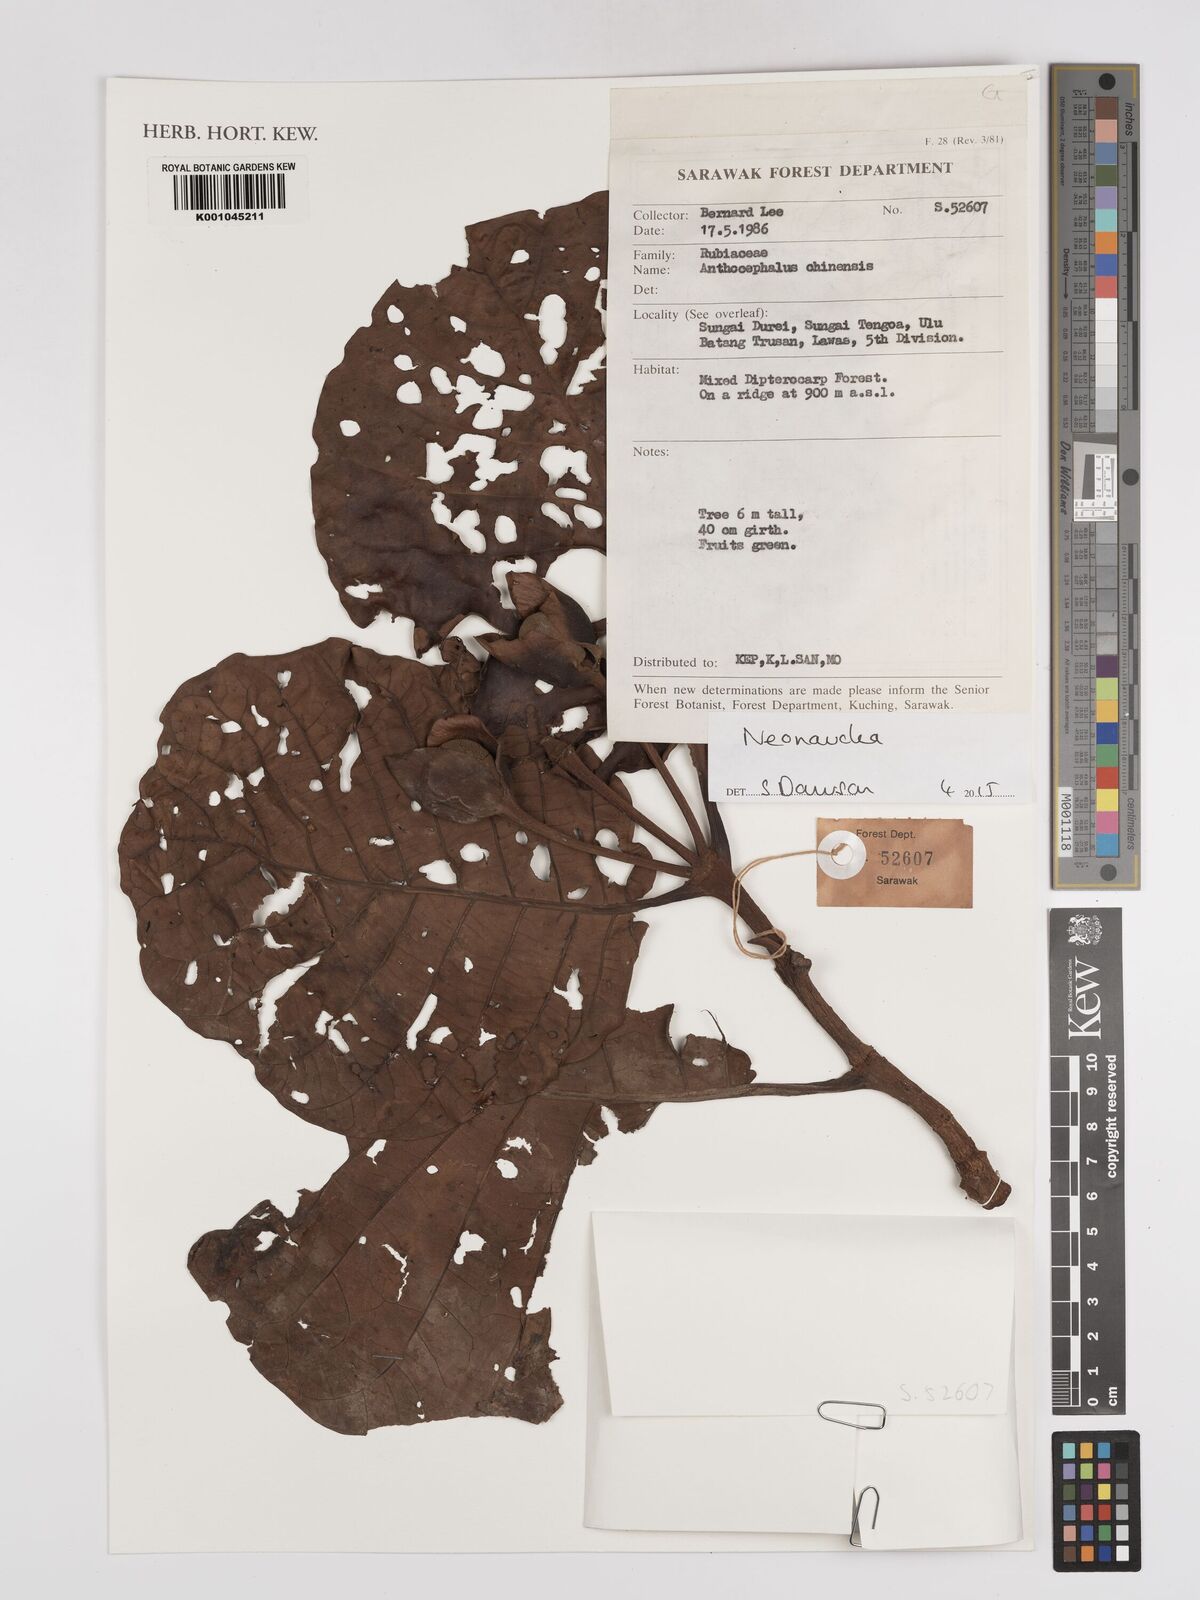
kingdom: Plantae
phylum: Tracheophyta
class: Magnoliopsida
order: Gentianales
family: Rubiaceae
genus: Neonauclea
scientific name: Neonauclea
